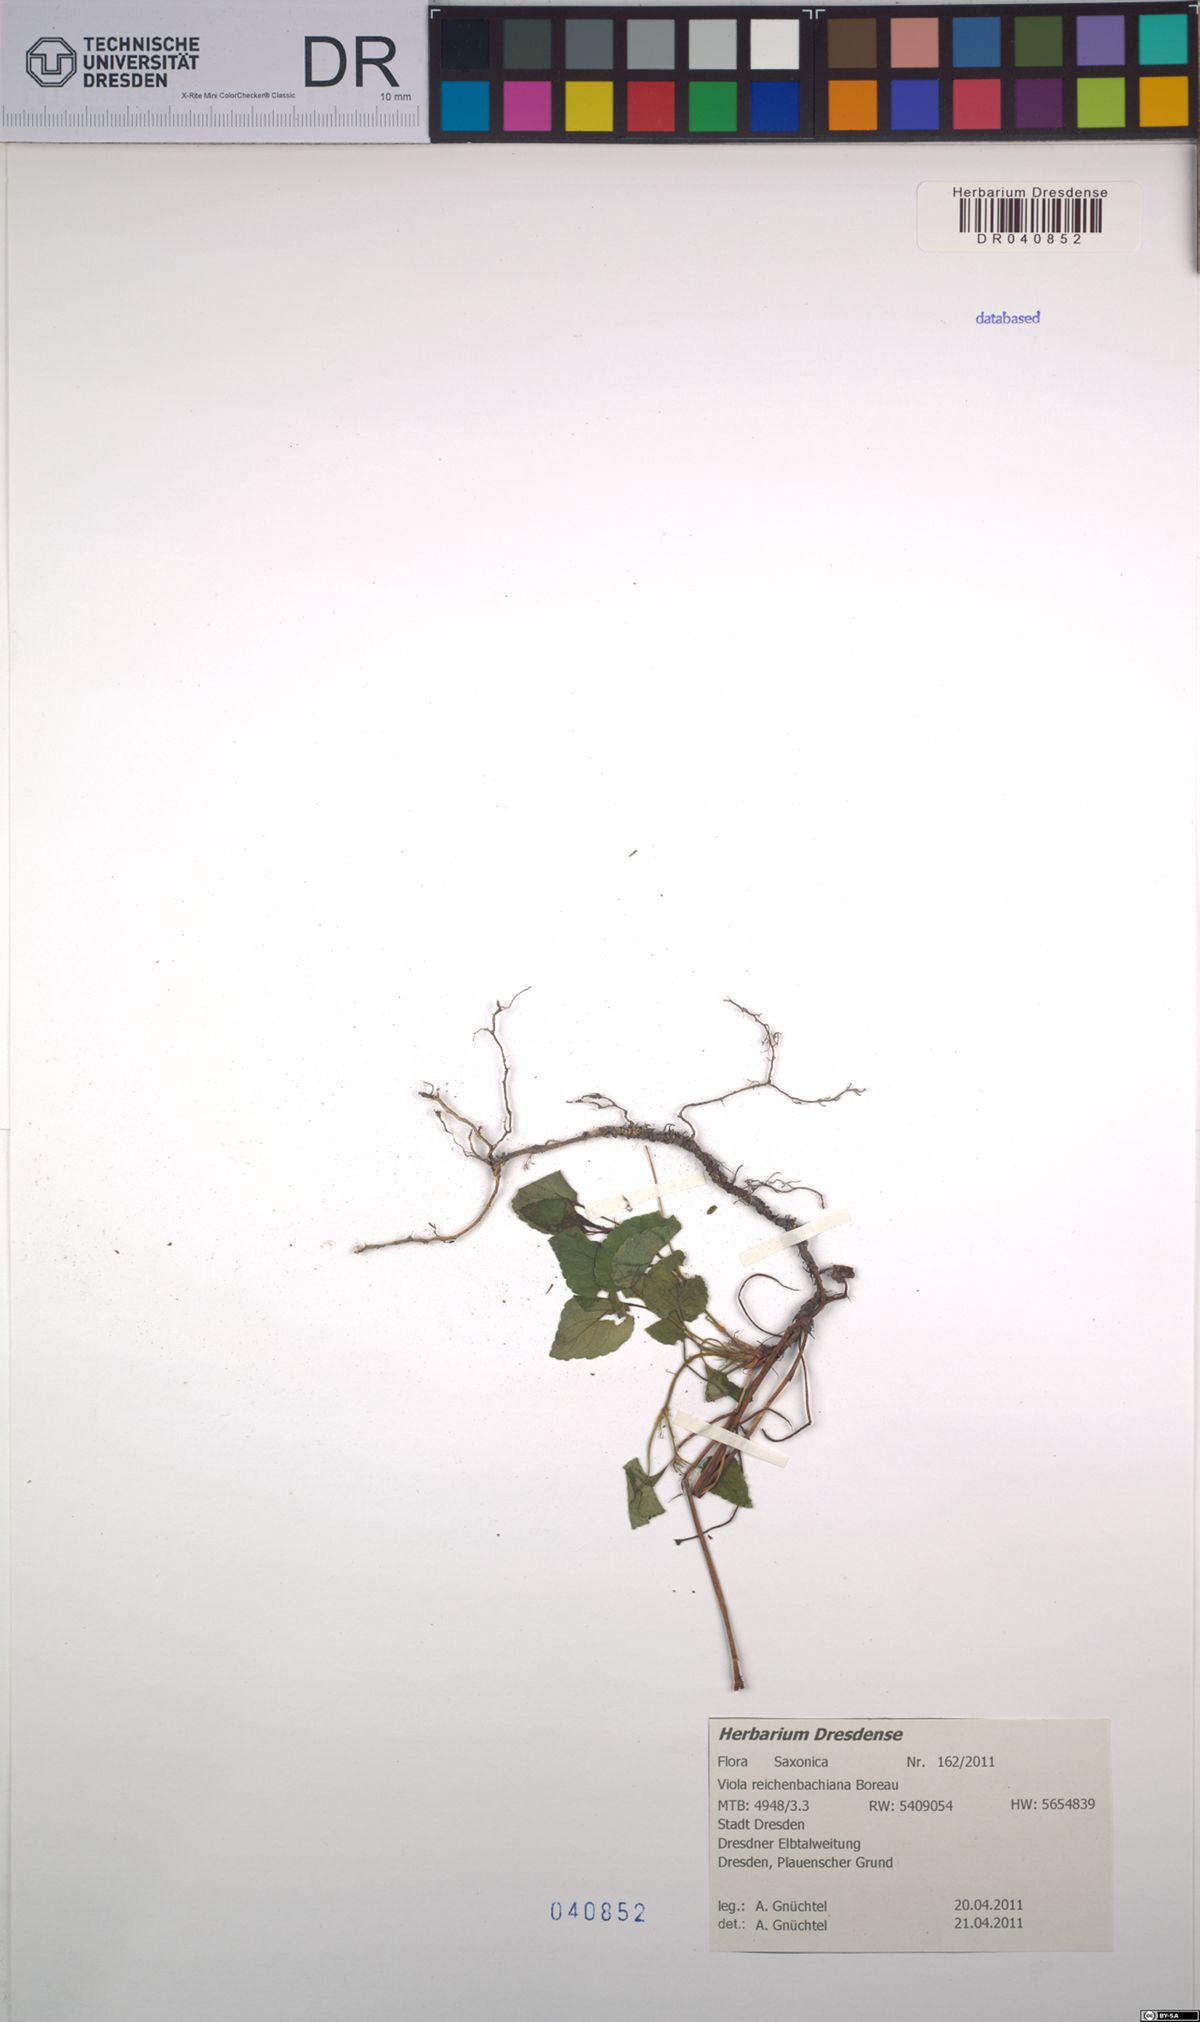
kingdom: Plantae
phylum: Tracheophyta
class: Magnoliopsida
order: Malpighiales
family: Violaceae
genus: Viola
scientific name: Viola reichenbachiana
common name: Early dog-violet
